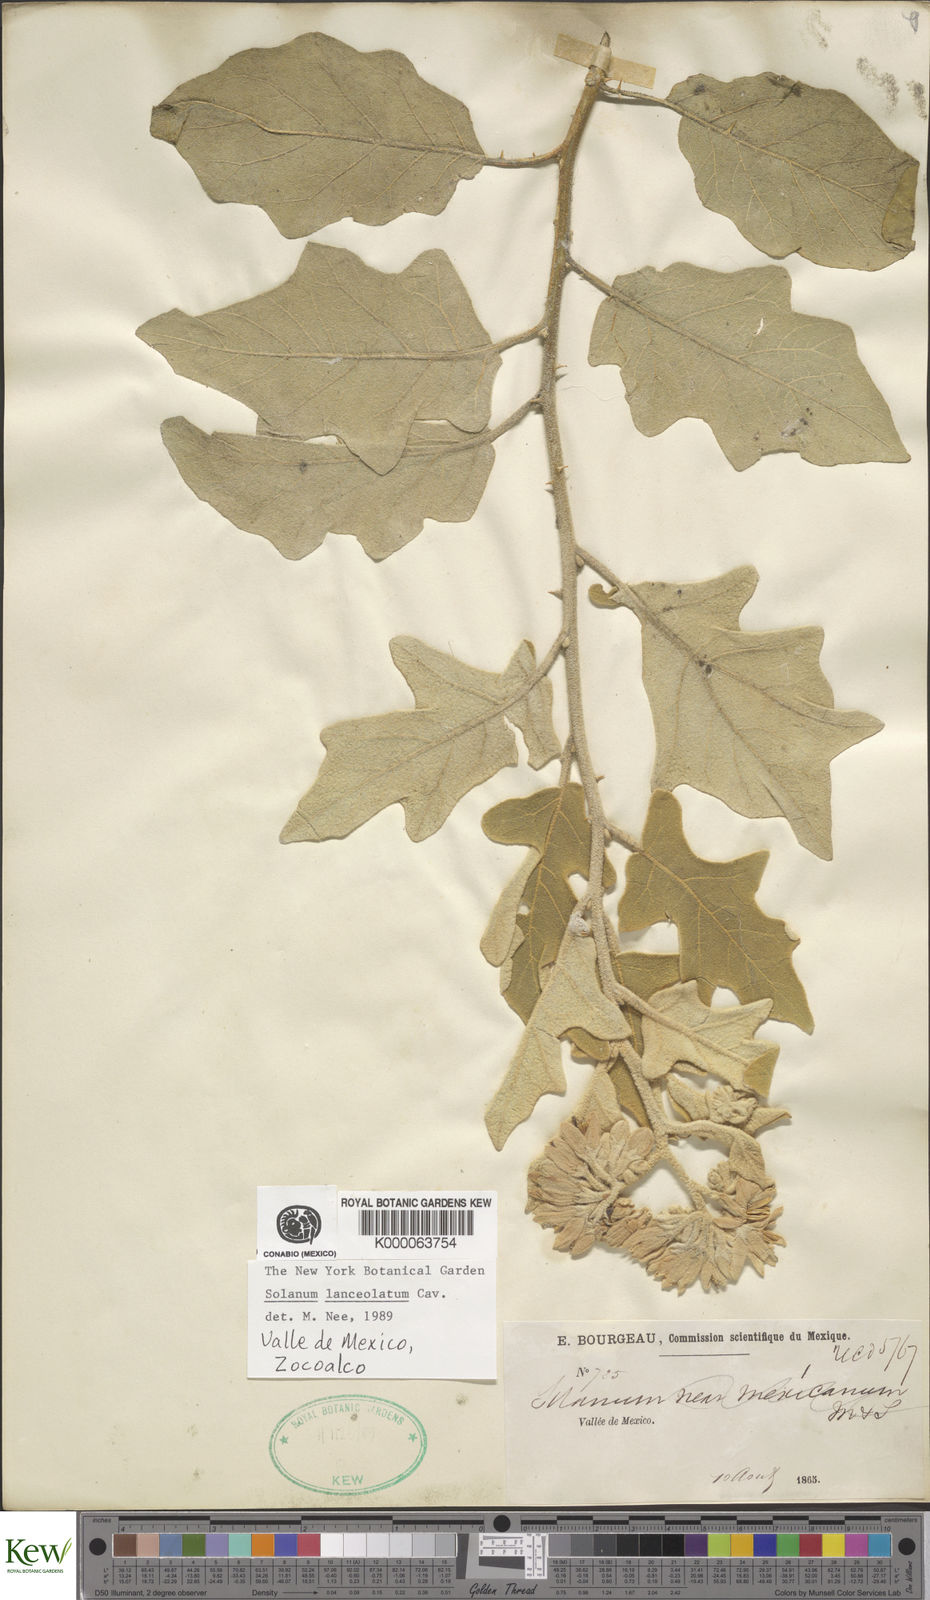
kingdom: Plantae
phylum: Tracheophyta
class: Magnoliopsida
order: Solanales
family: Solanaceae
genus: Solanum
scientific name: Solanum lanceolatum
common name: Orangeberry nightshade
